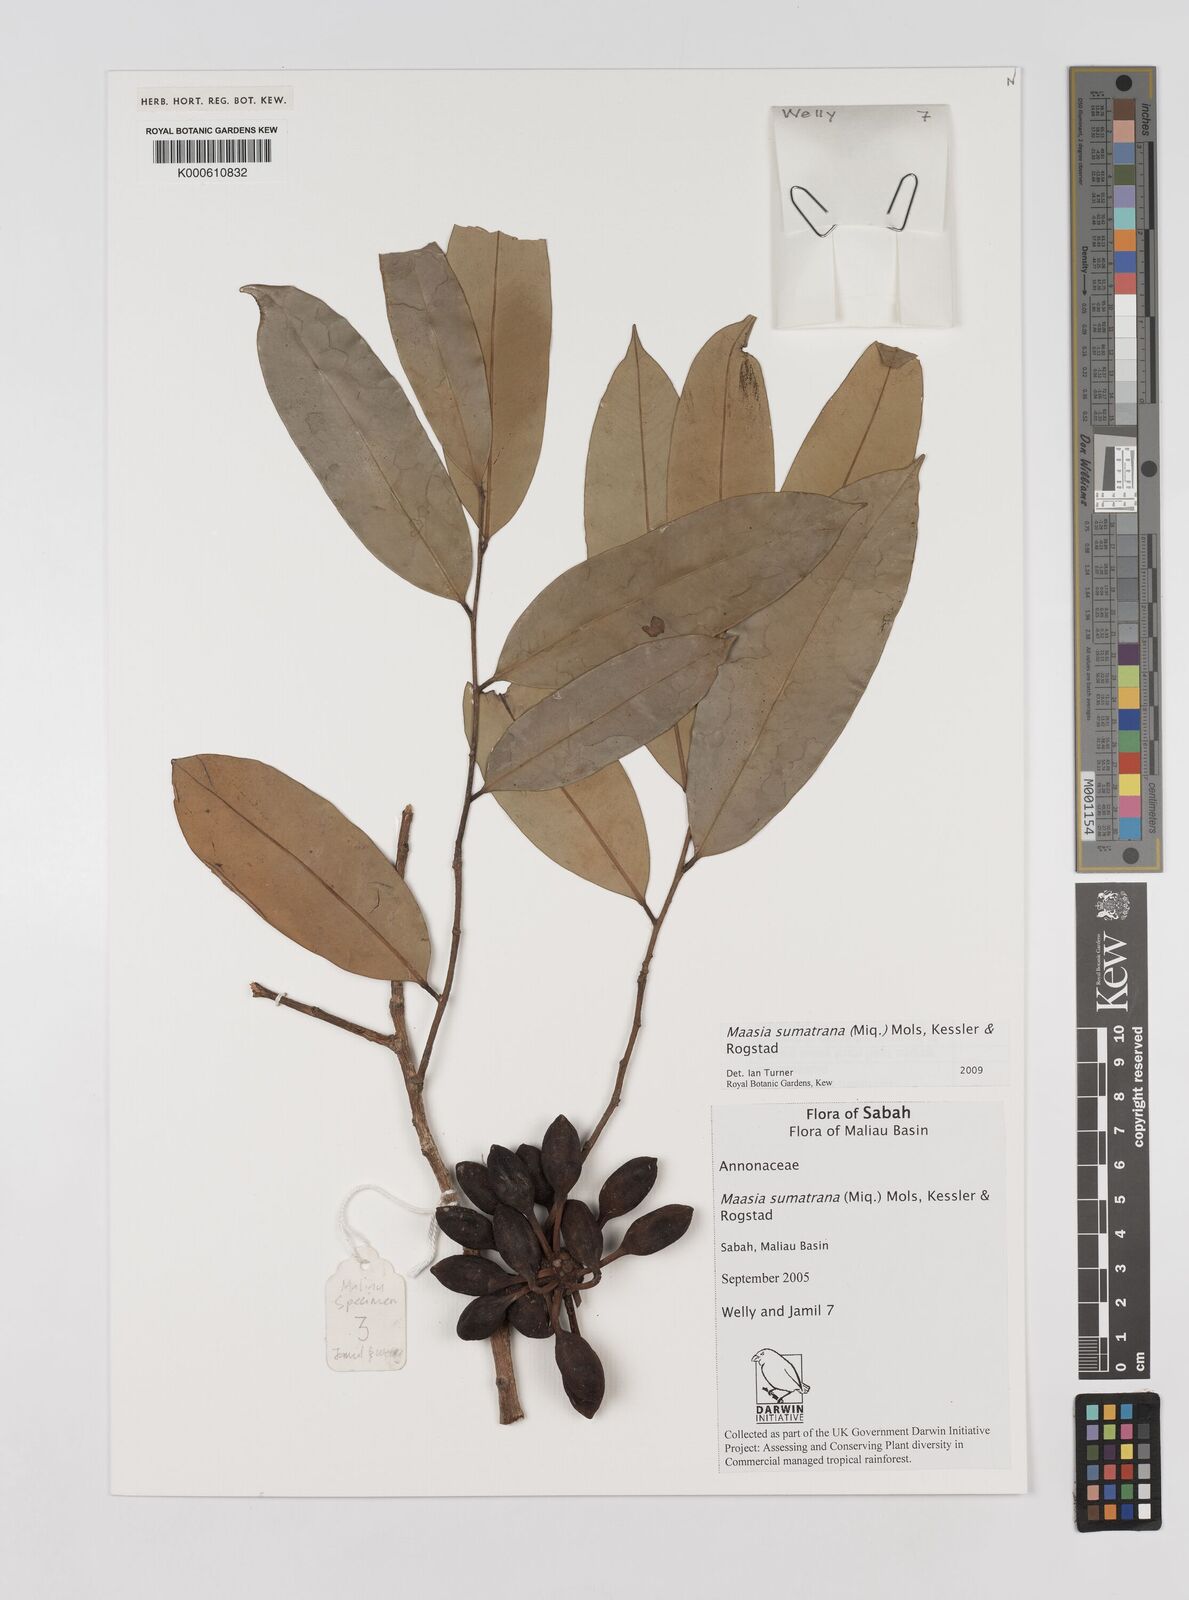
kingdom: Plantae
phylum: Tracheophyta
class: Magnoliopsida
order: Magnoliales
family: Annonaceae
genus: Maasia
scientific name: Maasia sumatrana
